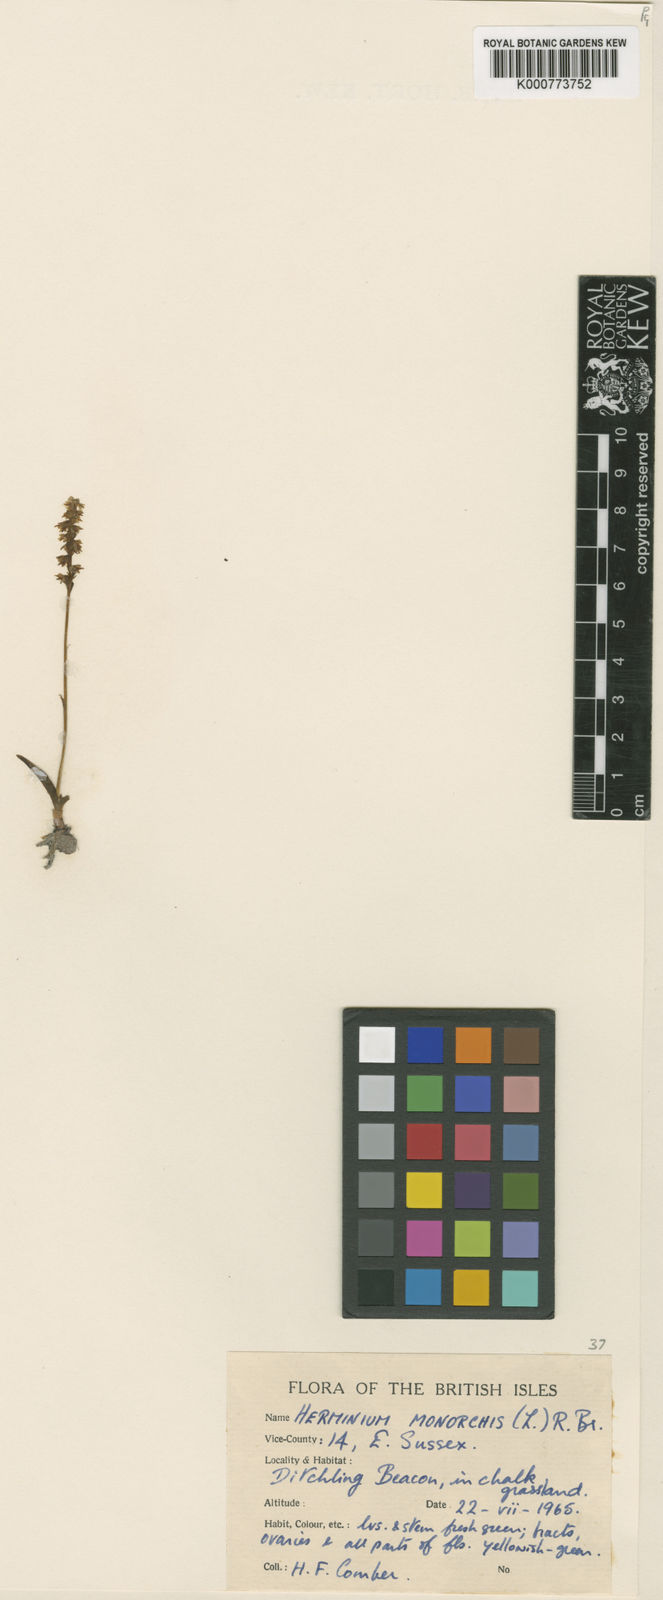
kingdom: Plantae
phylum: Tracheophyta
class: Liliopsida
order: Asparagales
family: Orchidaceae
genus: Herminium
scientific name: Herminium monorchis
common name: Musk orchid
